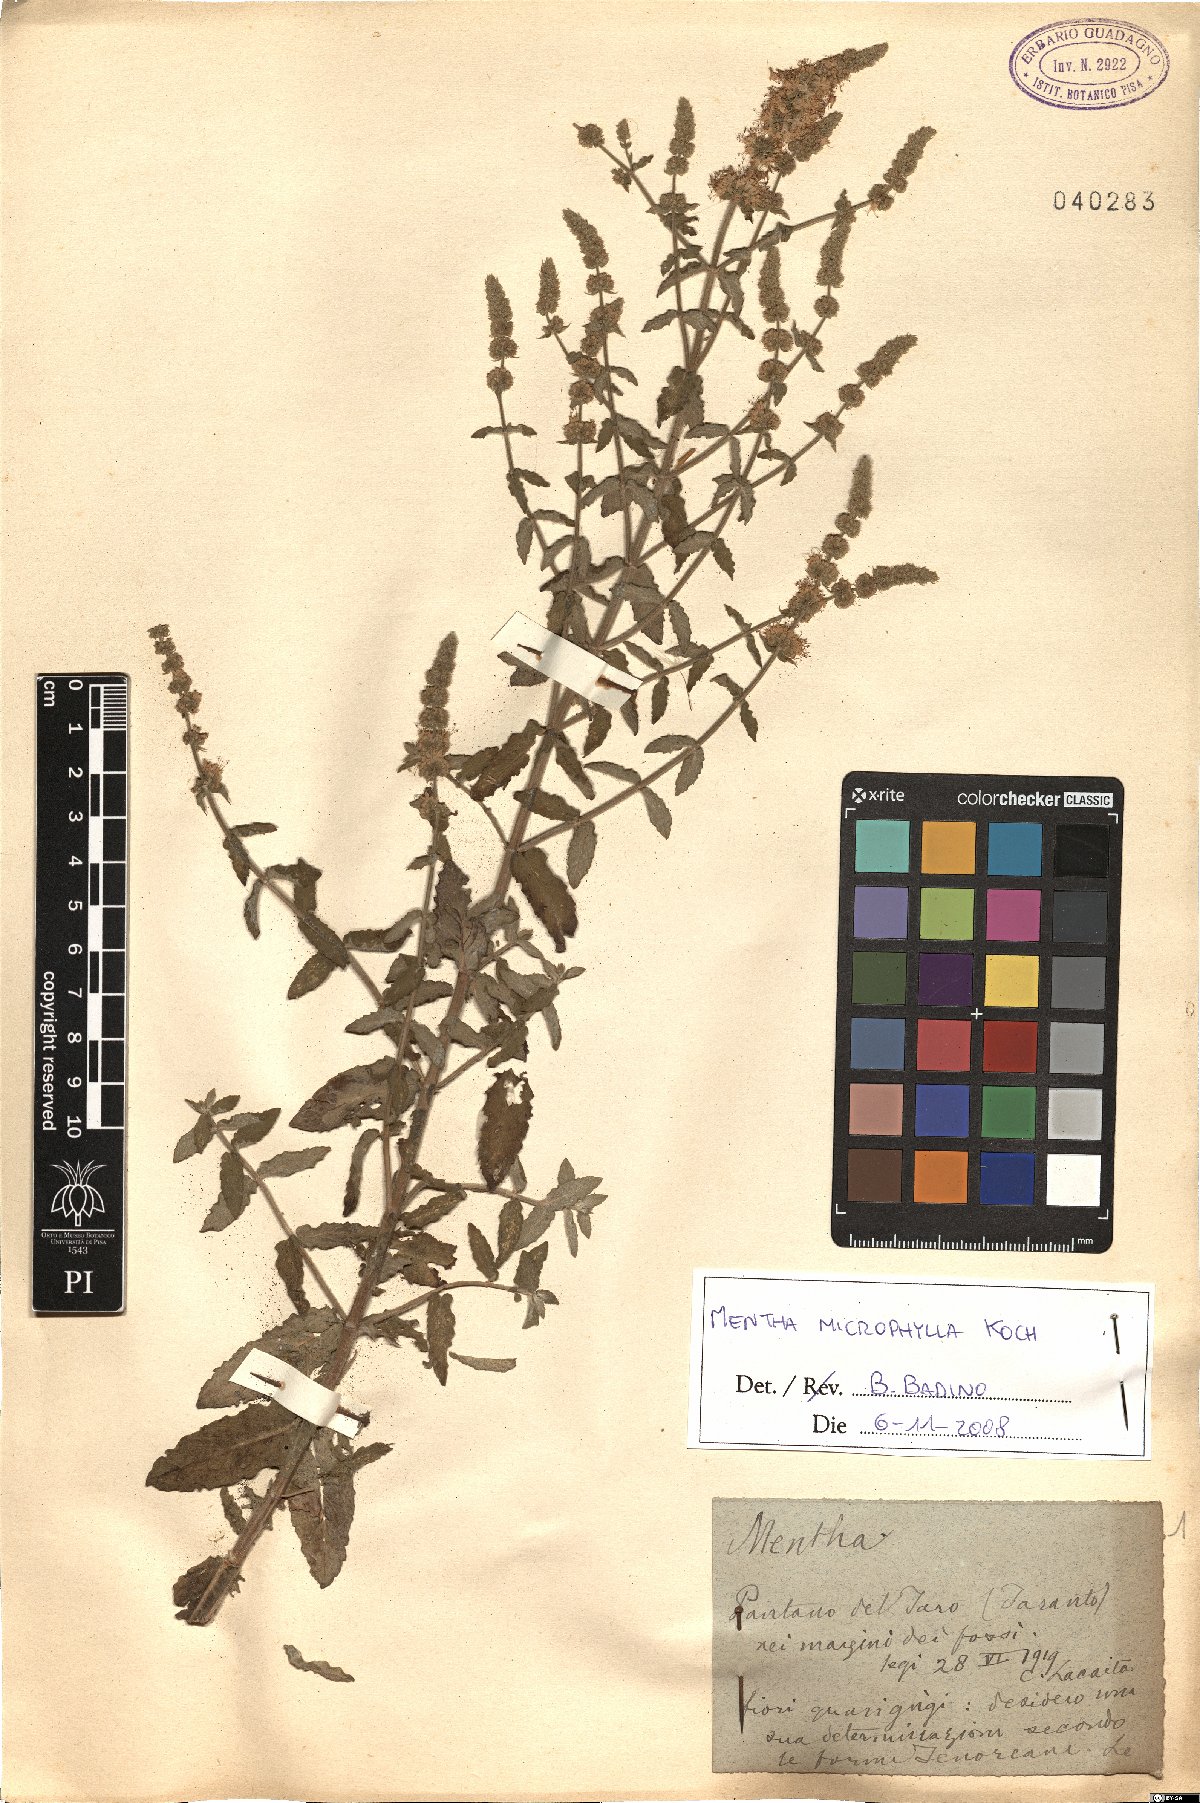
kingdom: Plantae
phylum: Tracheophyta
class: Magnoliopsida
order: Lamiales
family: Lamiaceae
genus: Mentha
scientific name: Mentha spicata
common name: Spearmint
